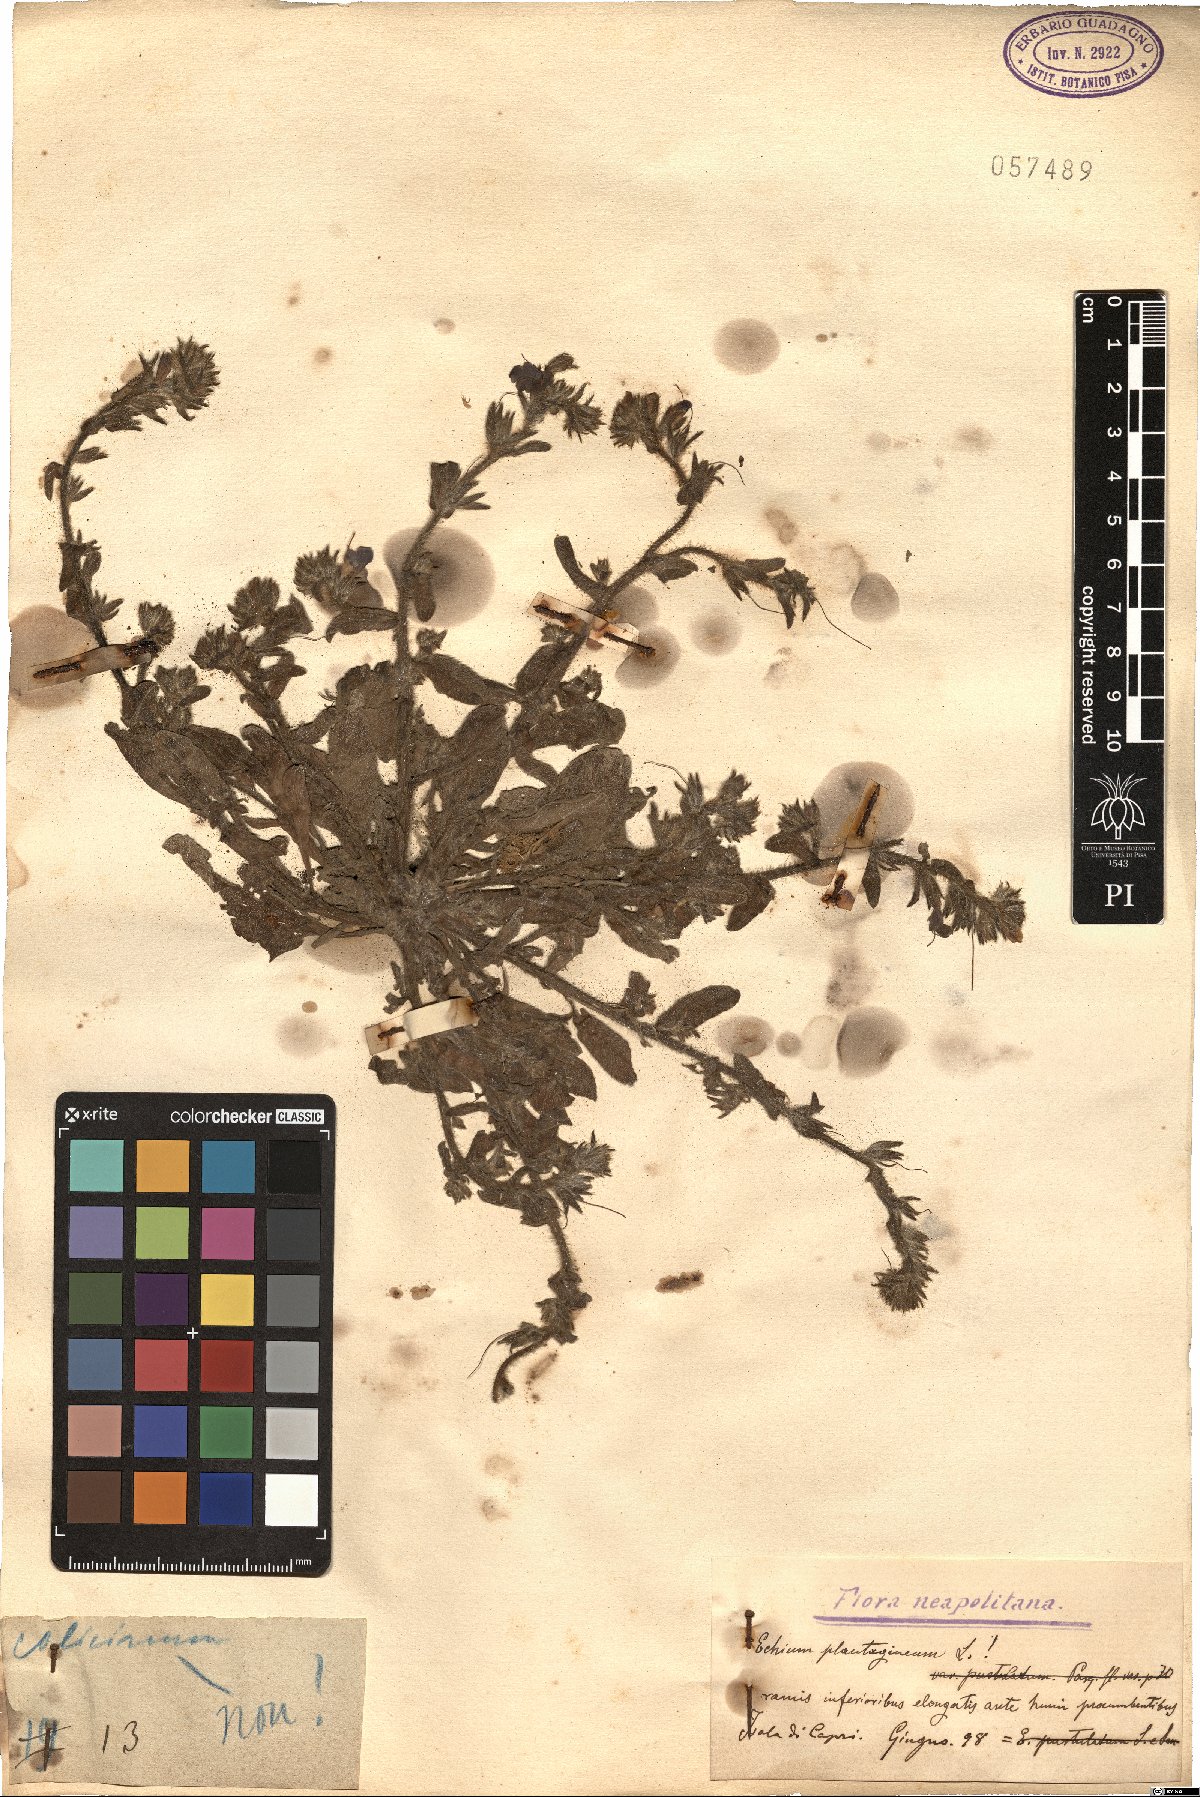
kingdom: Plantae
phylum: Tracheophyta
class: Magnoliopsida
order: Boraginales
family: Boraginaceae
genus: Echium
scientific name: Echium plantagineum
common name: Purple viper's-bugloss
